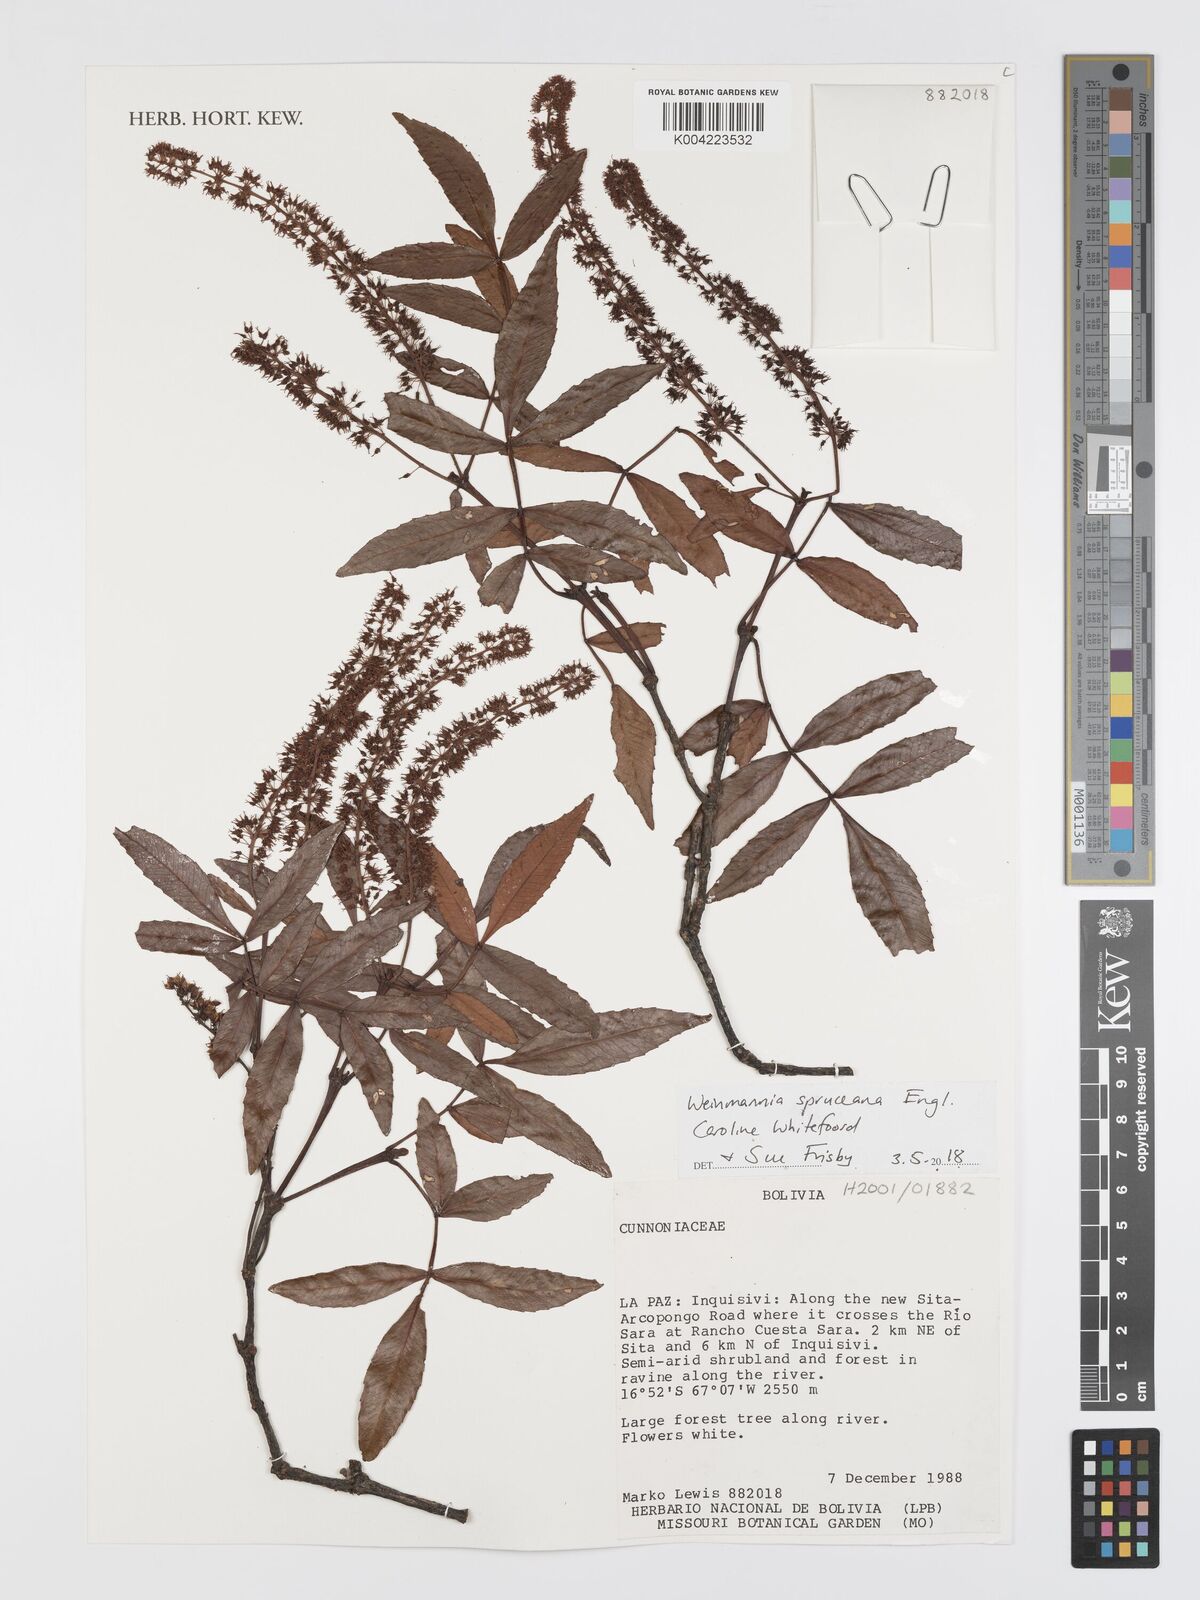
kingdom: Plantae
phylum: Tracheophyta
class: Magnoliopsida
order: Oxalidales
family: Cunoniaceae
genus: Weinmannia
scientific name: Weinmannia spruceana
